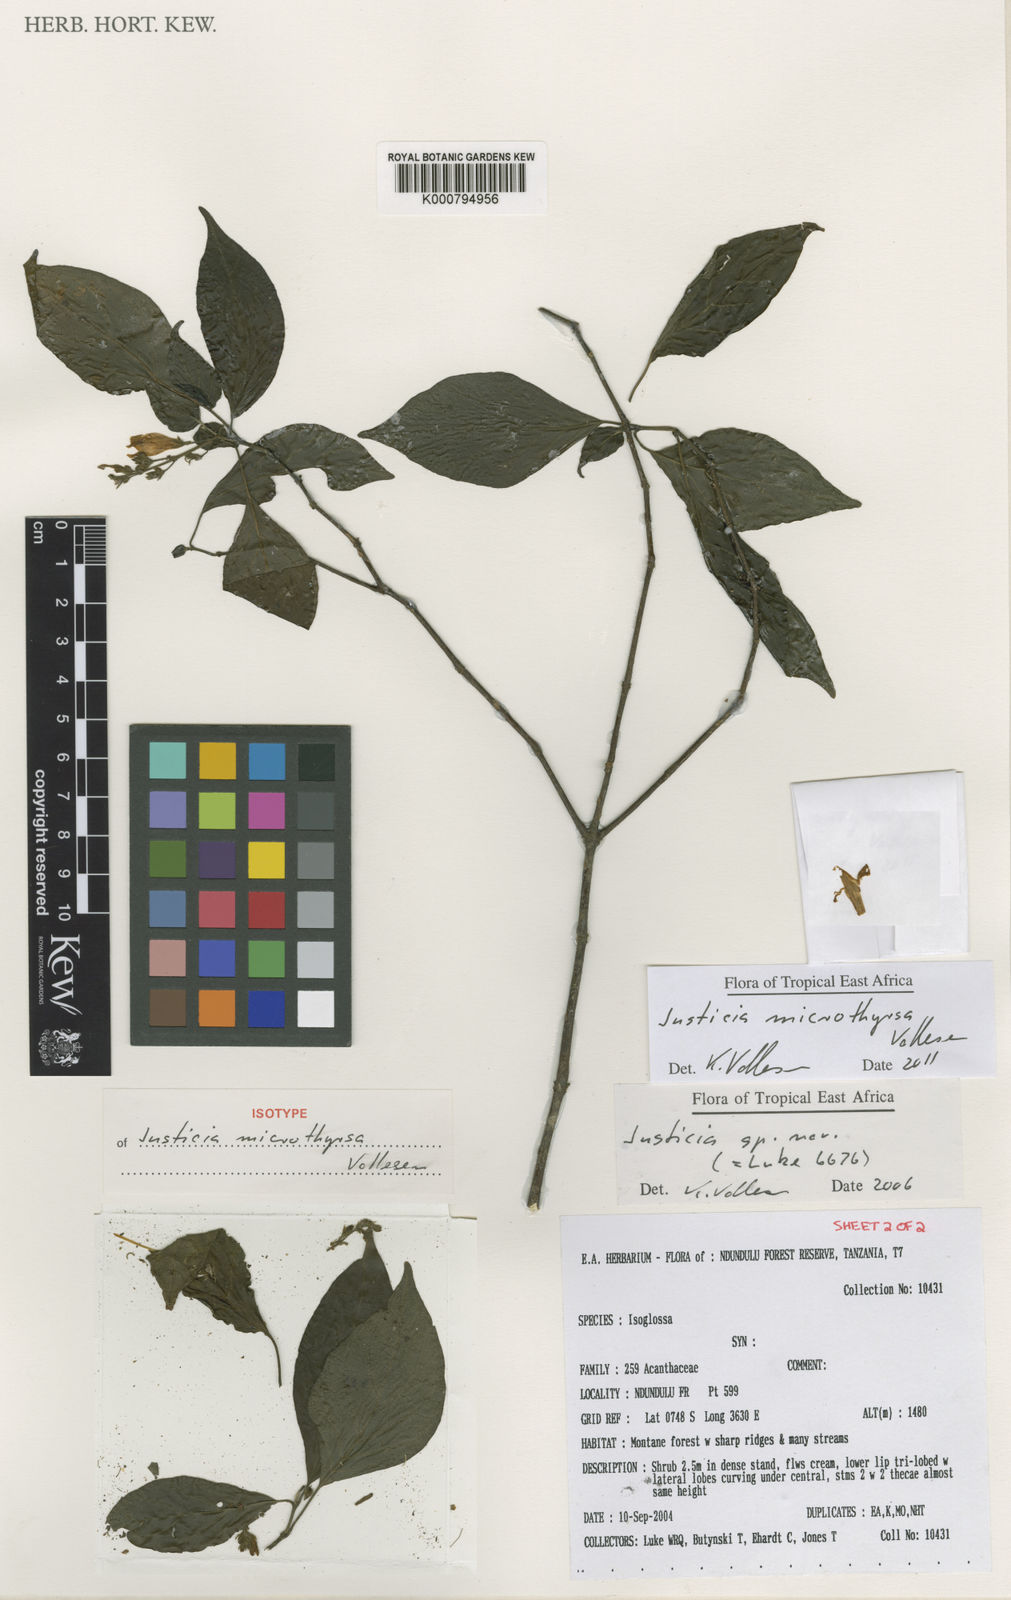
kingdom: Plantae
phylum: Tracheophyta
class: Magnoliopsida
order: Lamiales
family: Acanthaceae
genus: Justicia
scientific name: Justicia microthyrsa
